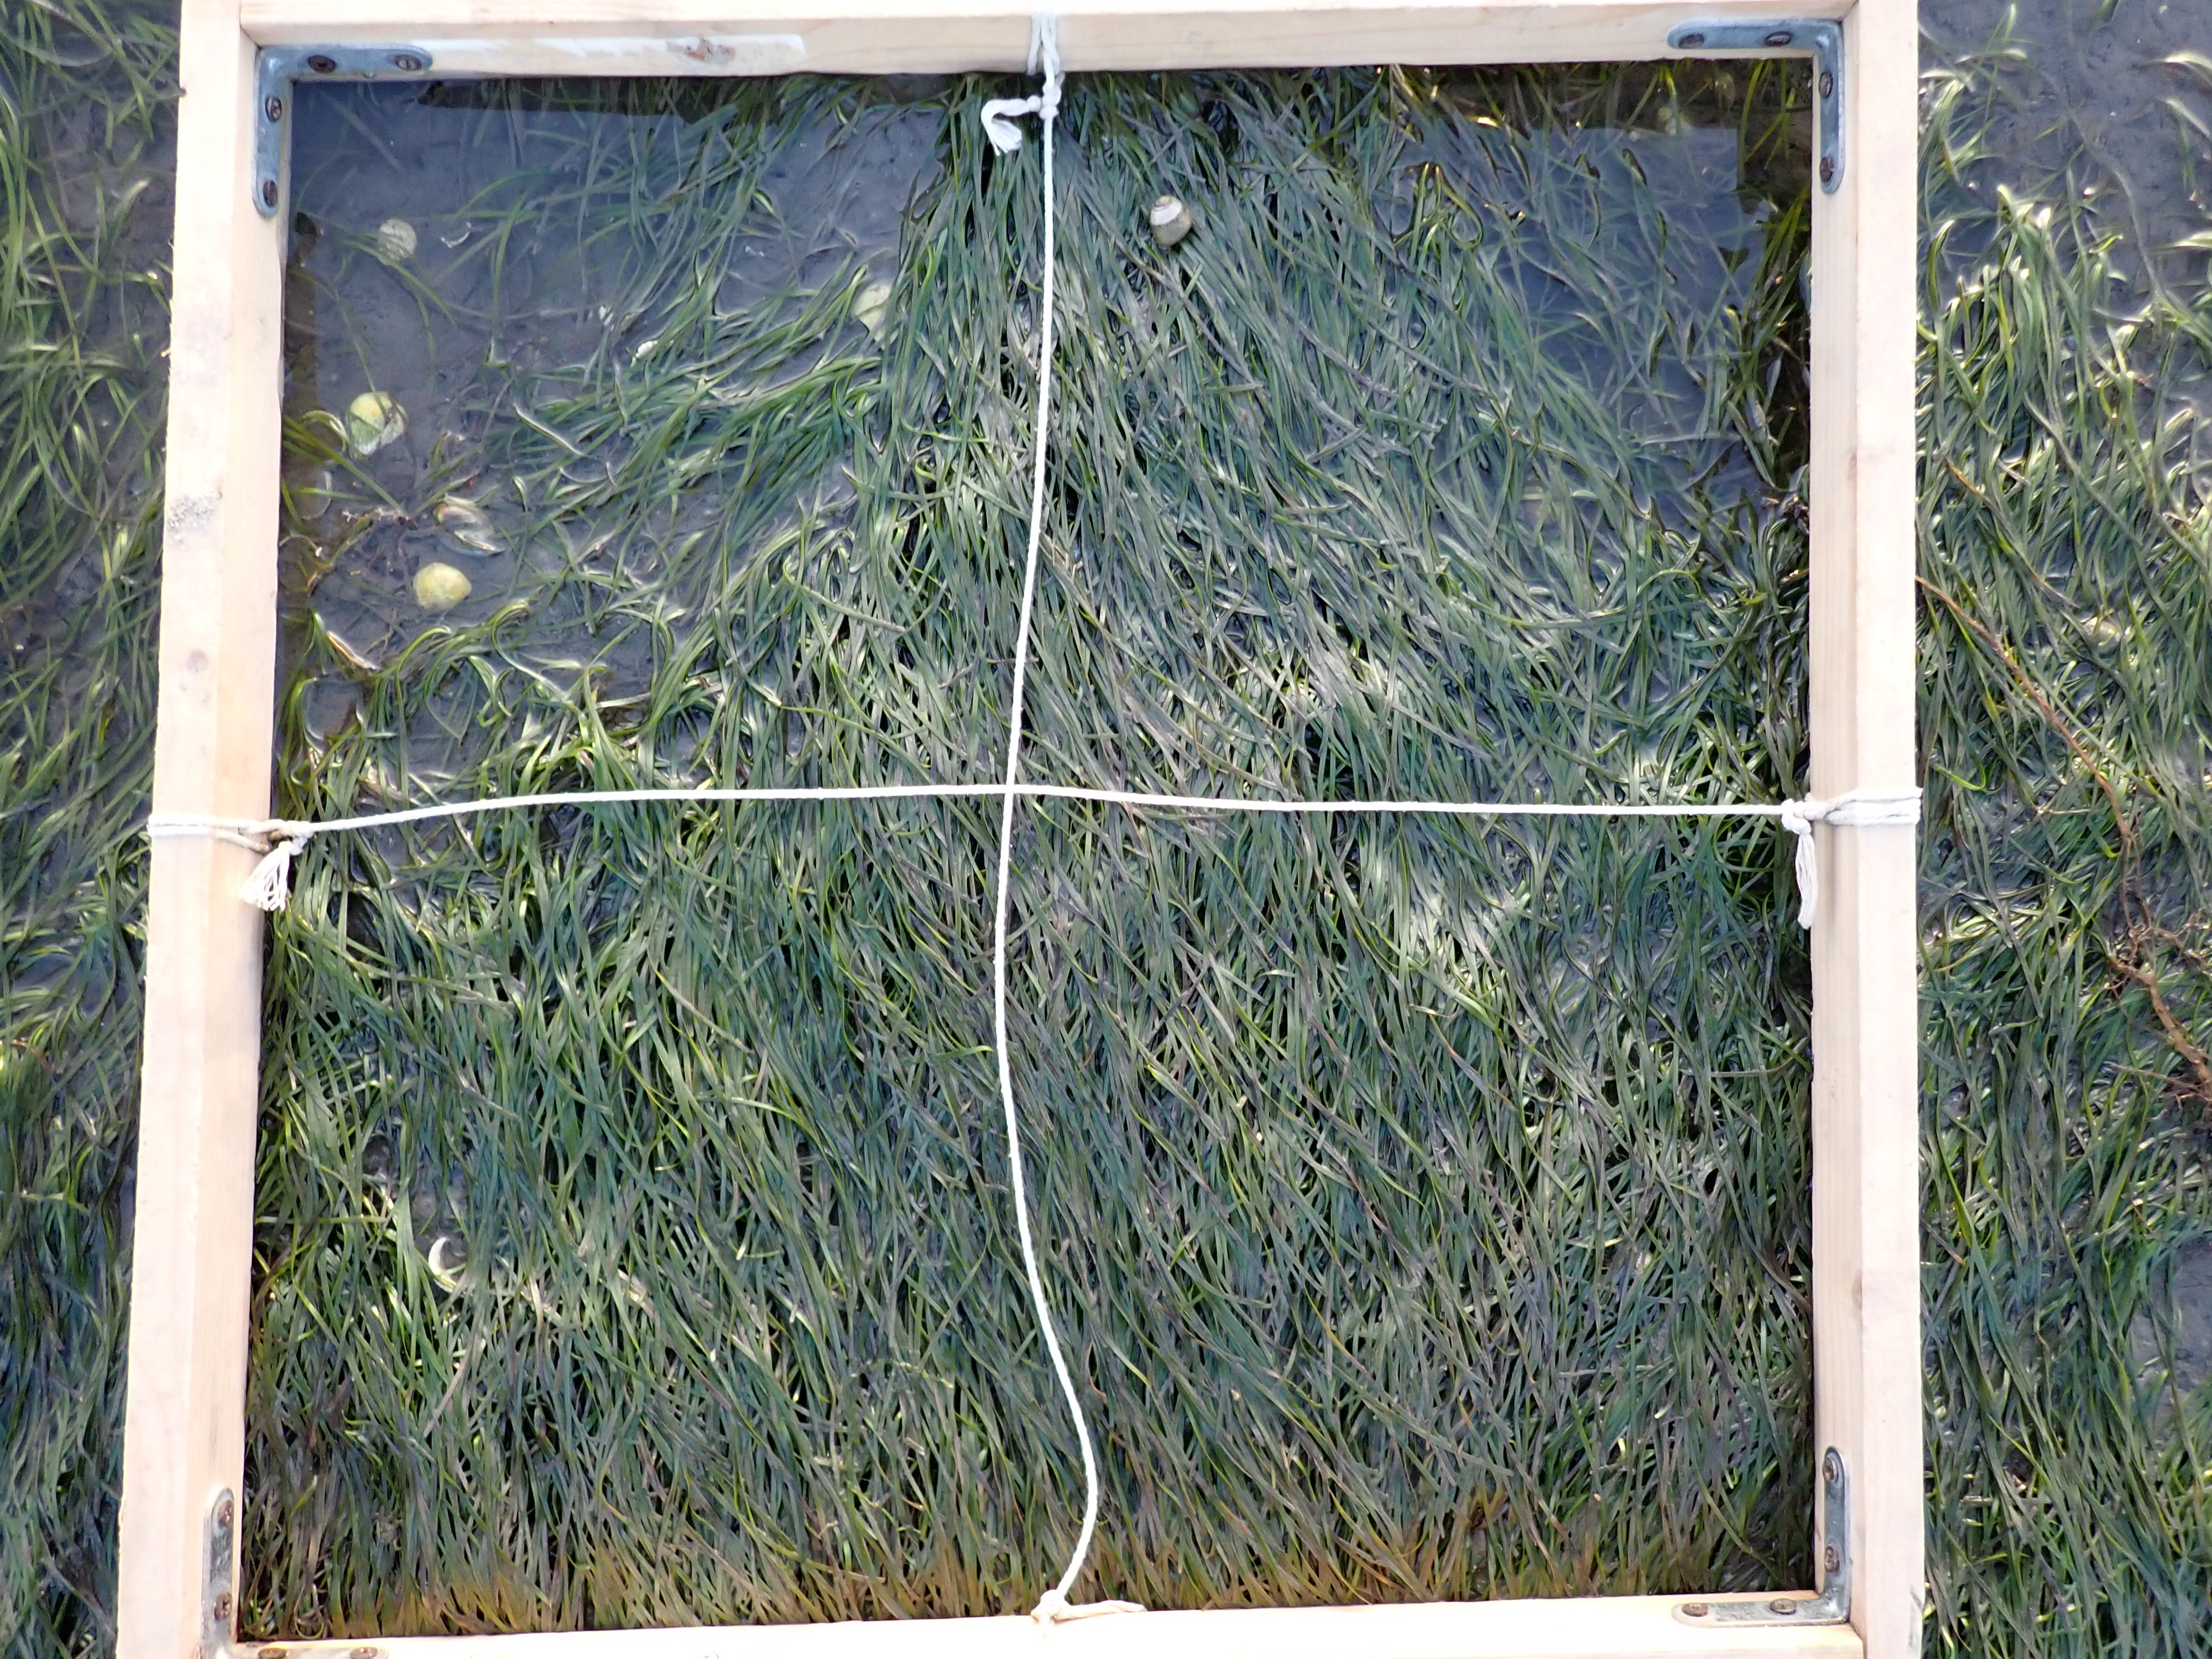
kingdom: Plantae
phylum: Tracheophyta
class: Liliopsida
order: Alismatales
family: Zosteraceae
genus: Zostera
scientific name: Zostera noltii
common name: Dwarf eelgrass
